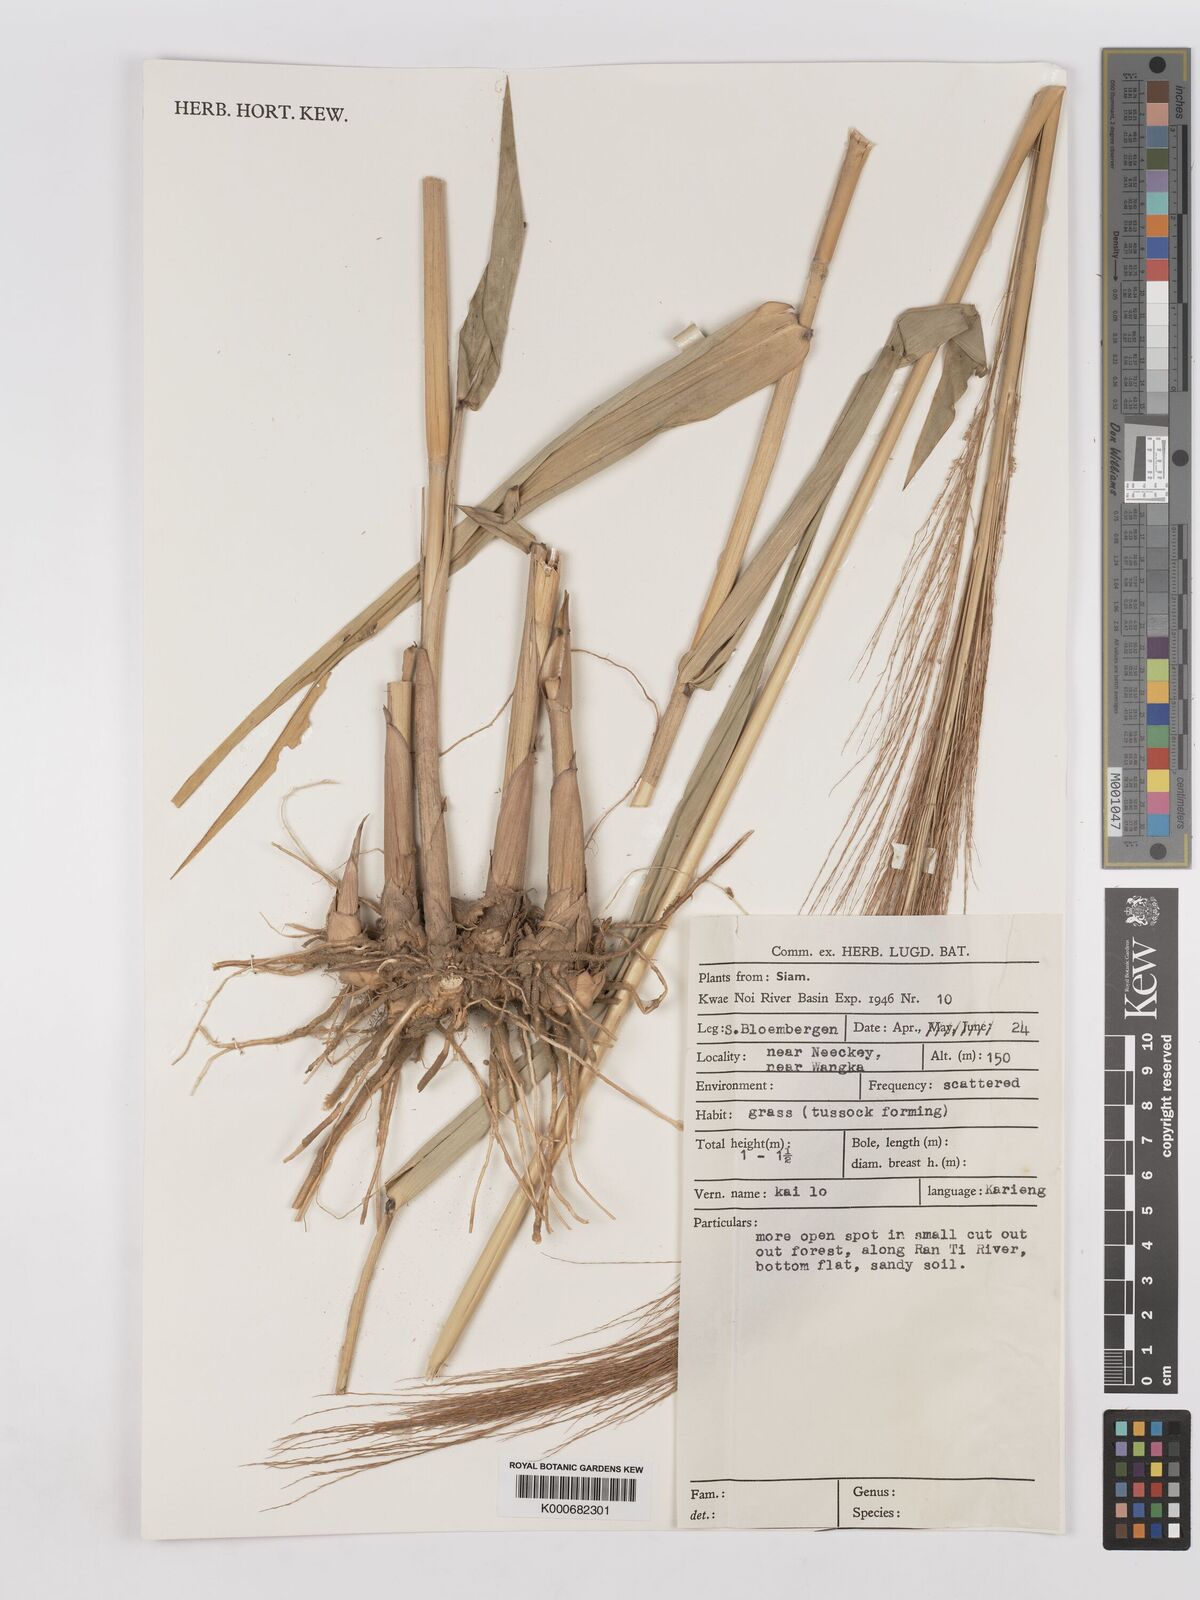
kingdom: Plantae
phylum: Tracheophyta
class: Liliopsida
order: Poales
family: Poaceae
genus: Thysanolaena
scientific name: Thysanolaena latifolia
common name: Tiger grass
